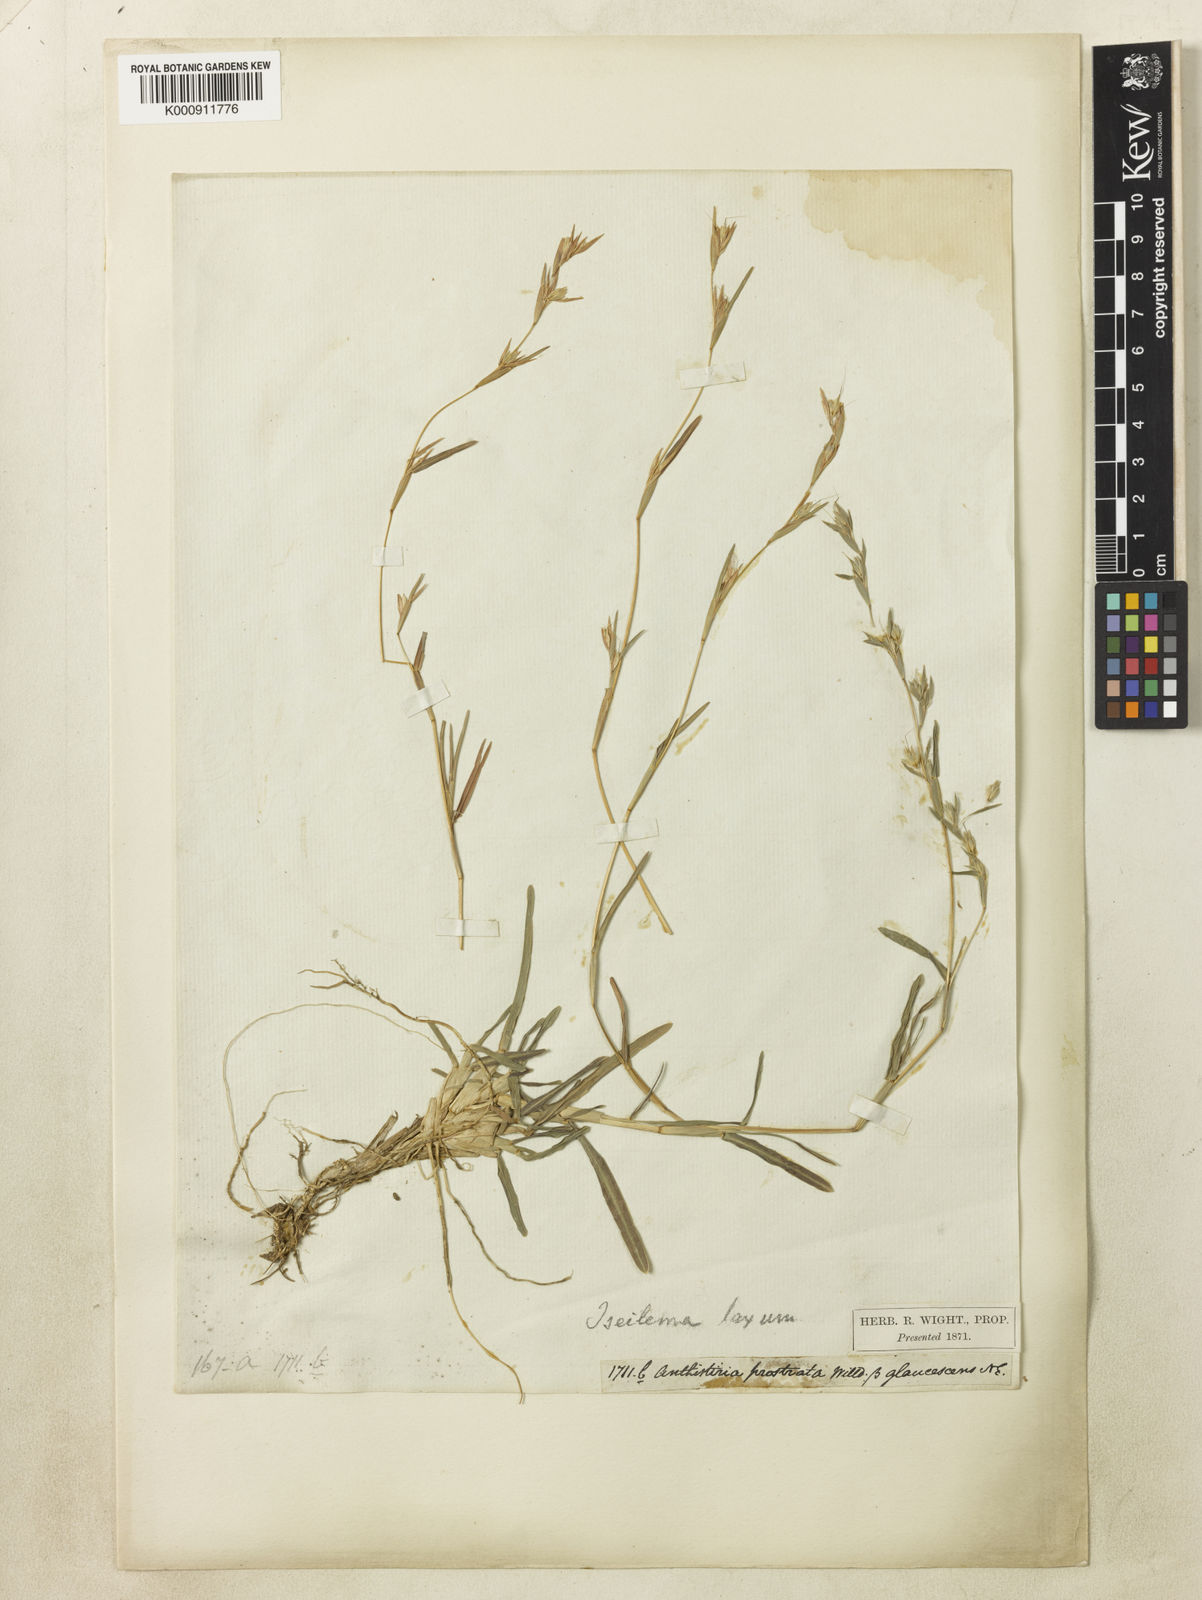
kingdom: Plantae
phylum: Tracheophyta
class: Liliopsida
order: Poales
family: Poaceae
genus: Iseilema
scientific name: Iseilema prostratum
